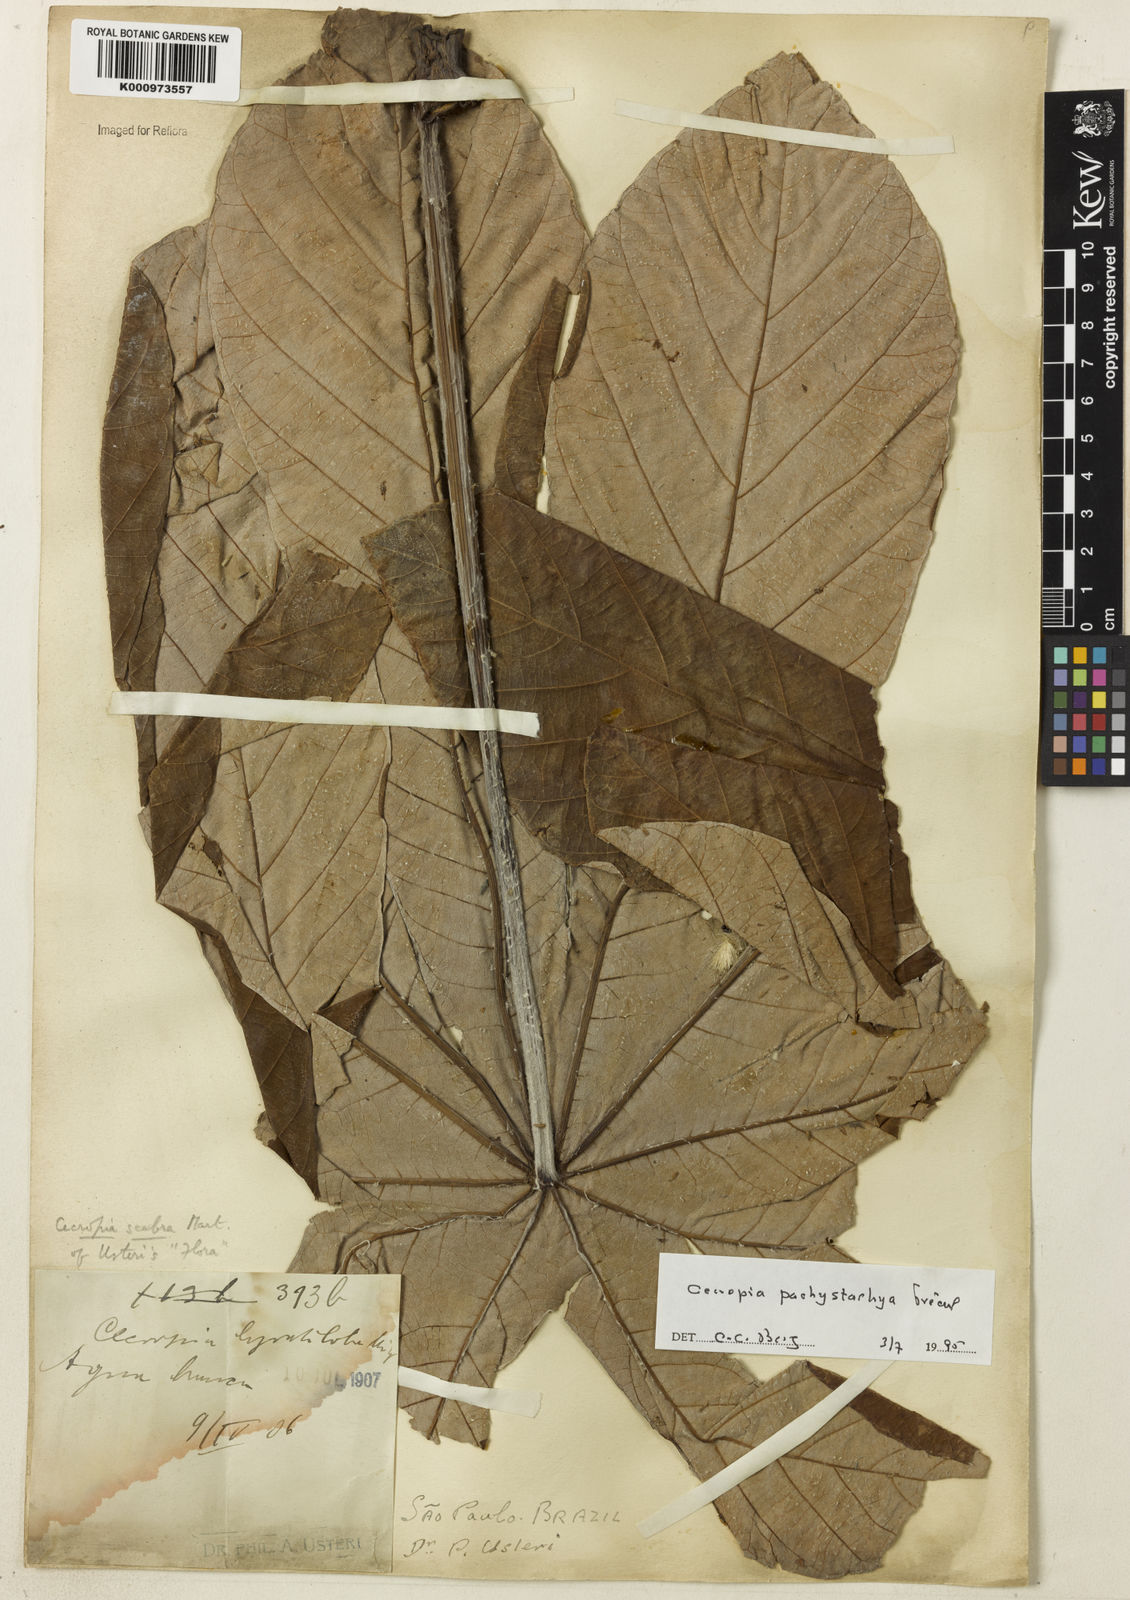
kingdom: Plantae
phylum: Tracheophyta
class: Magnoliopsida
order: Rosales
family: Urticaceae
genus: Cecropia
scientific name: Cecropia
